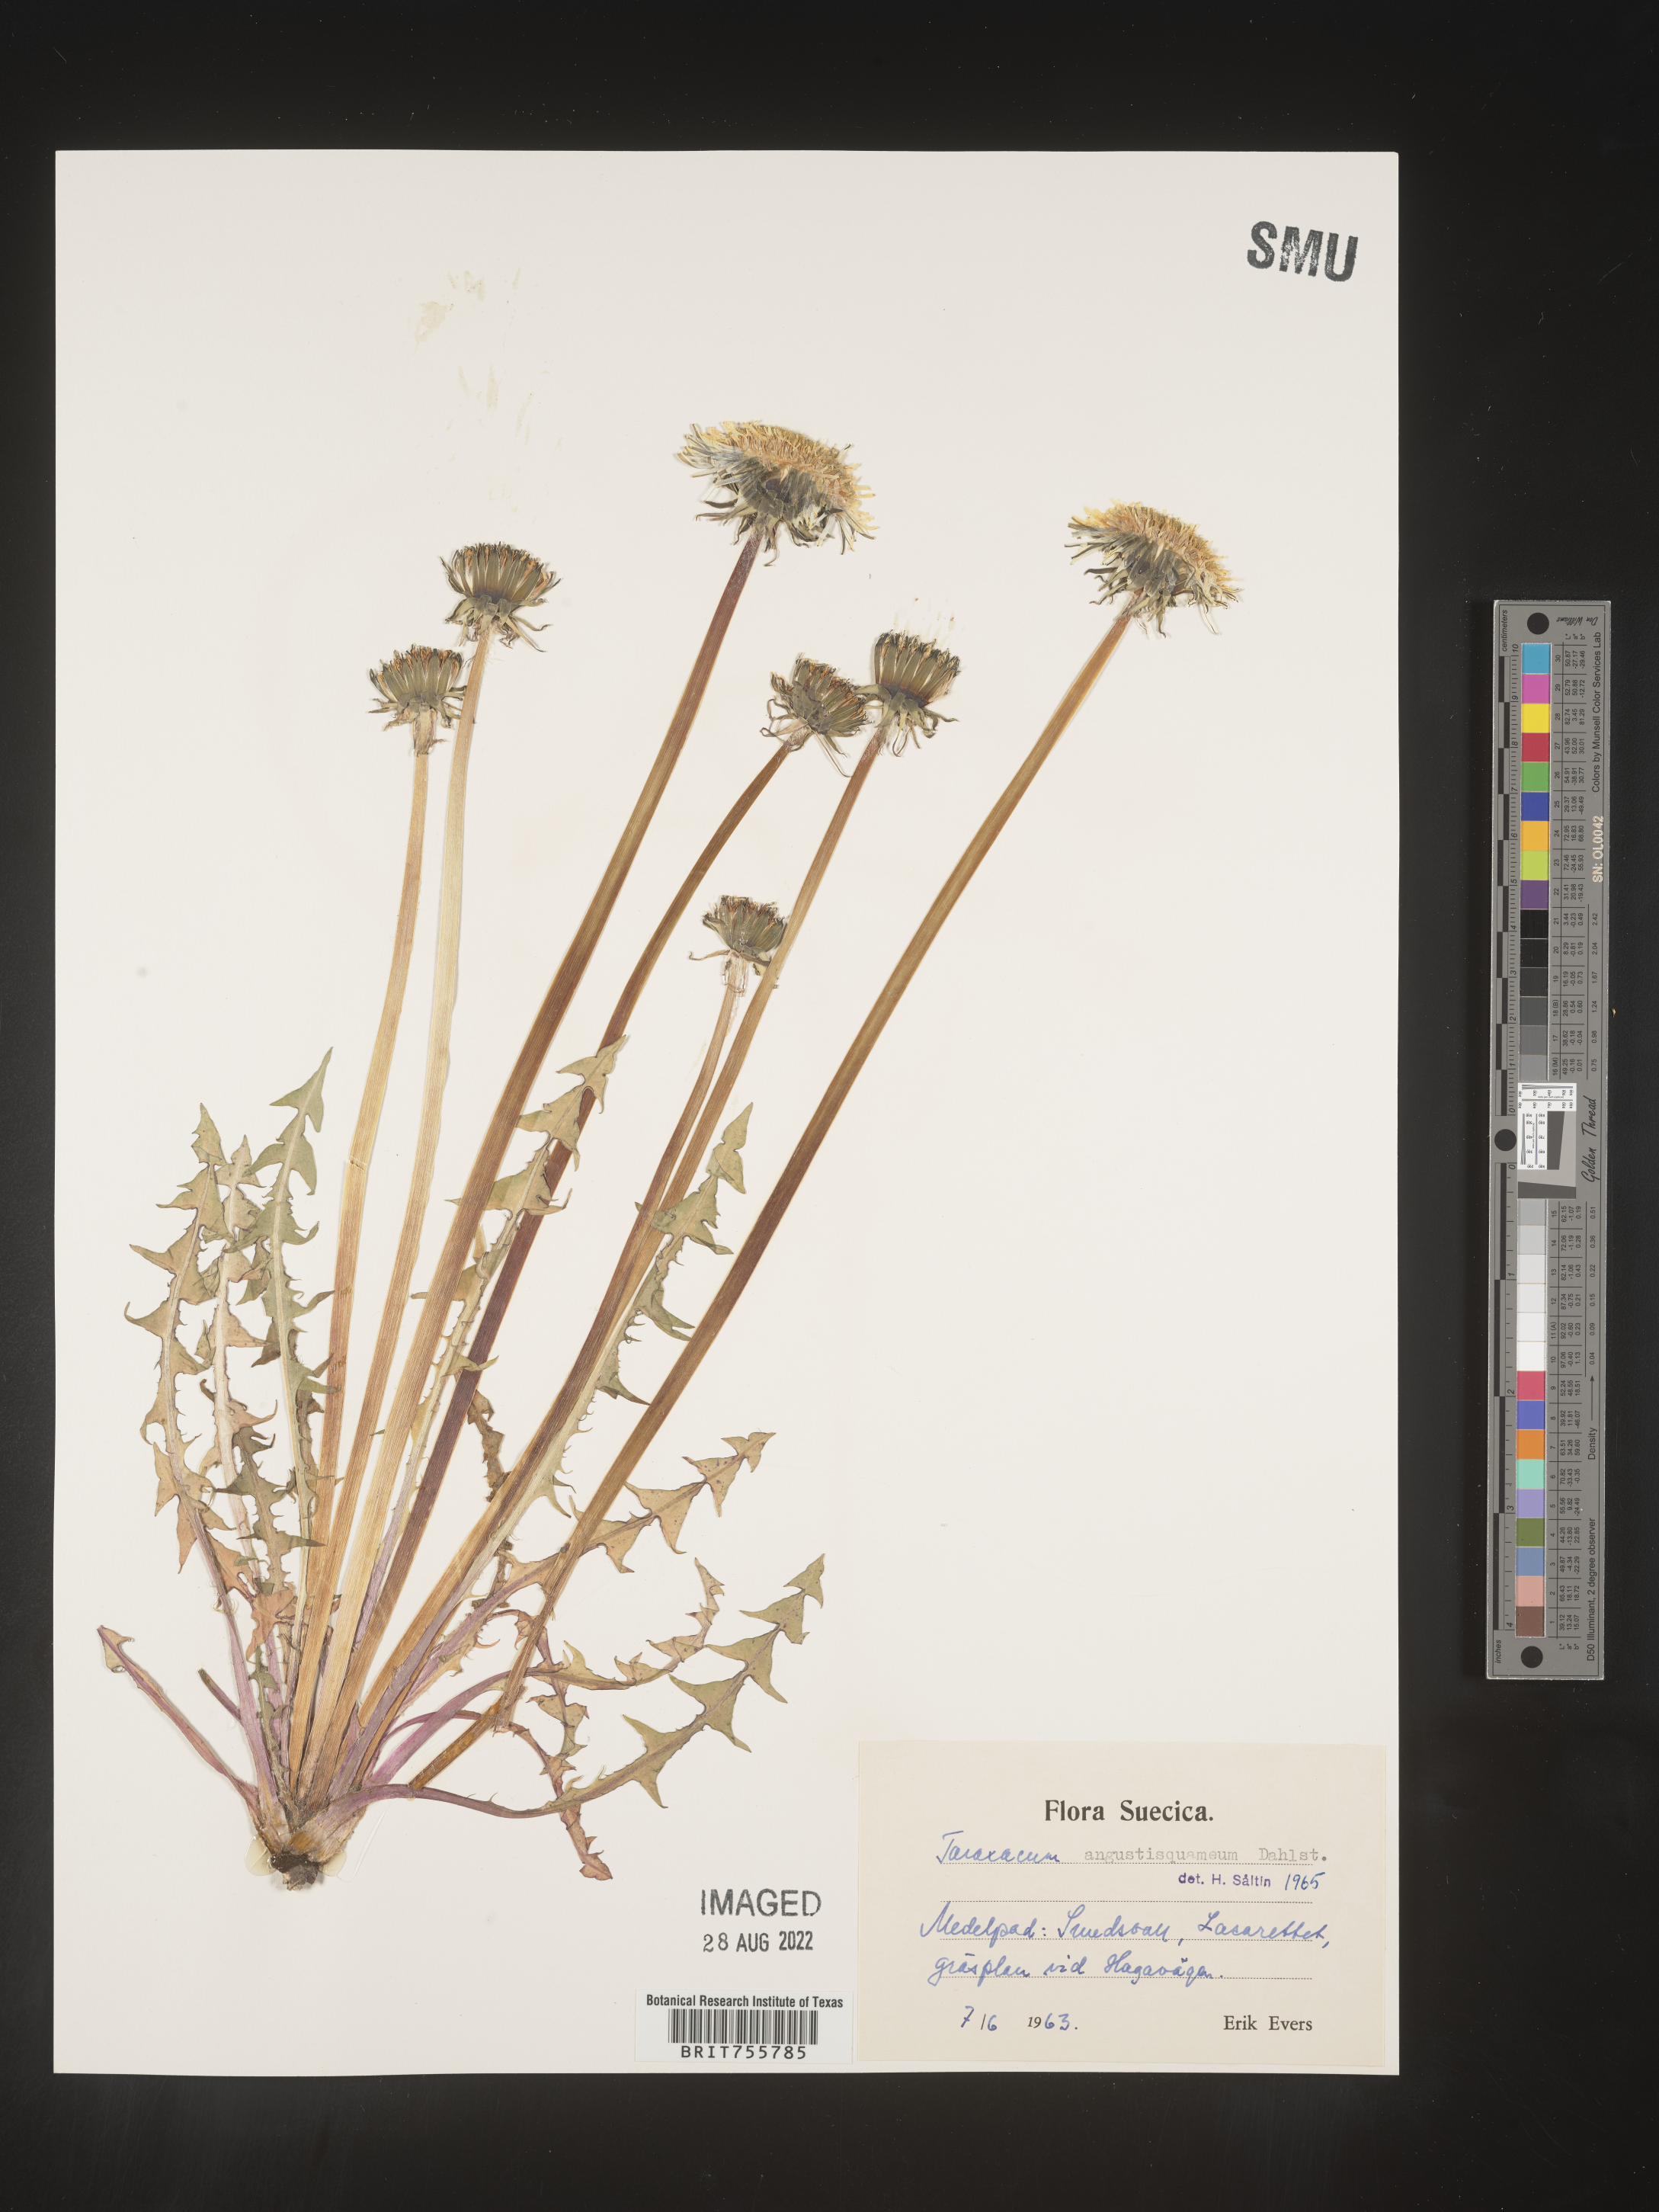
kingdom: Plantae
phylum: Tracheophyta
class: Magnoliopsida
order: Asterales
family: Asteraceae
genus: Taraxacum
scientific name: Taraxacum
